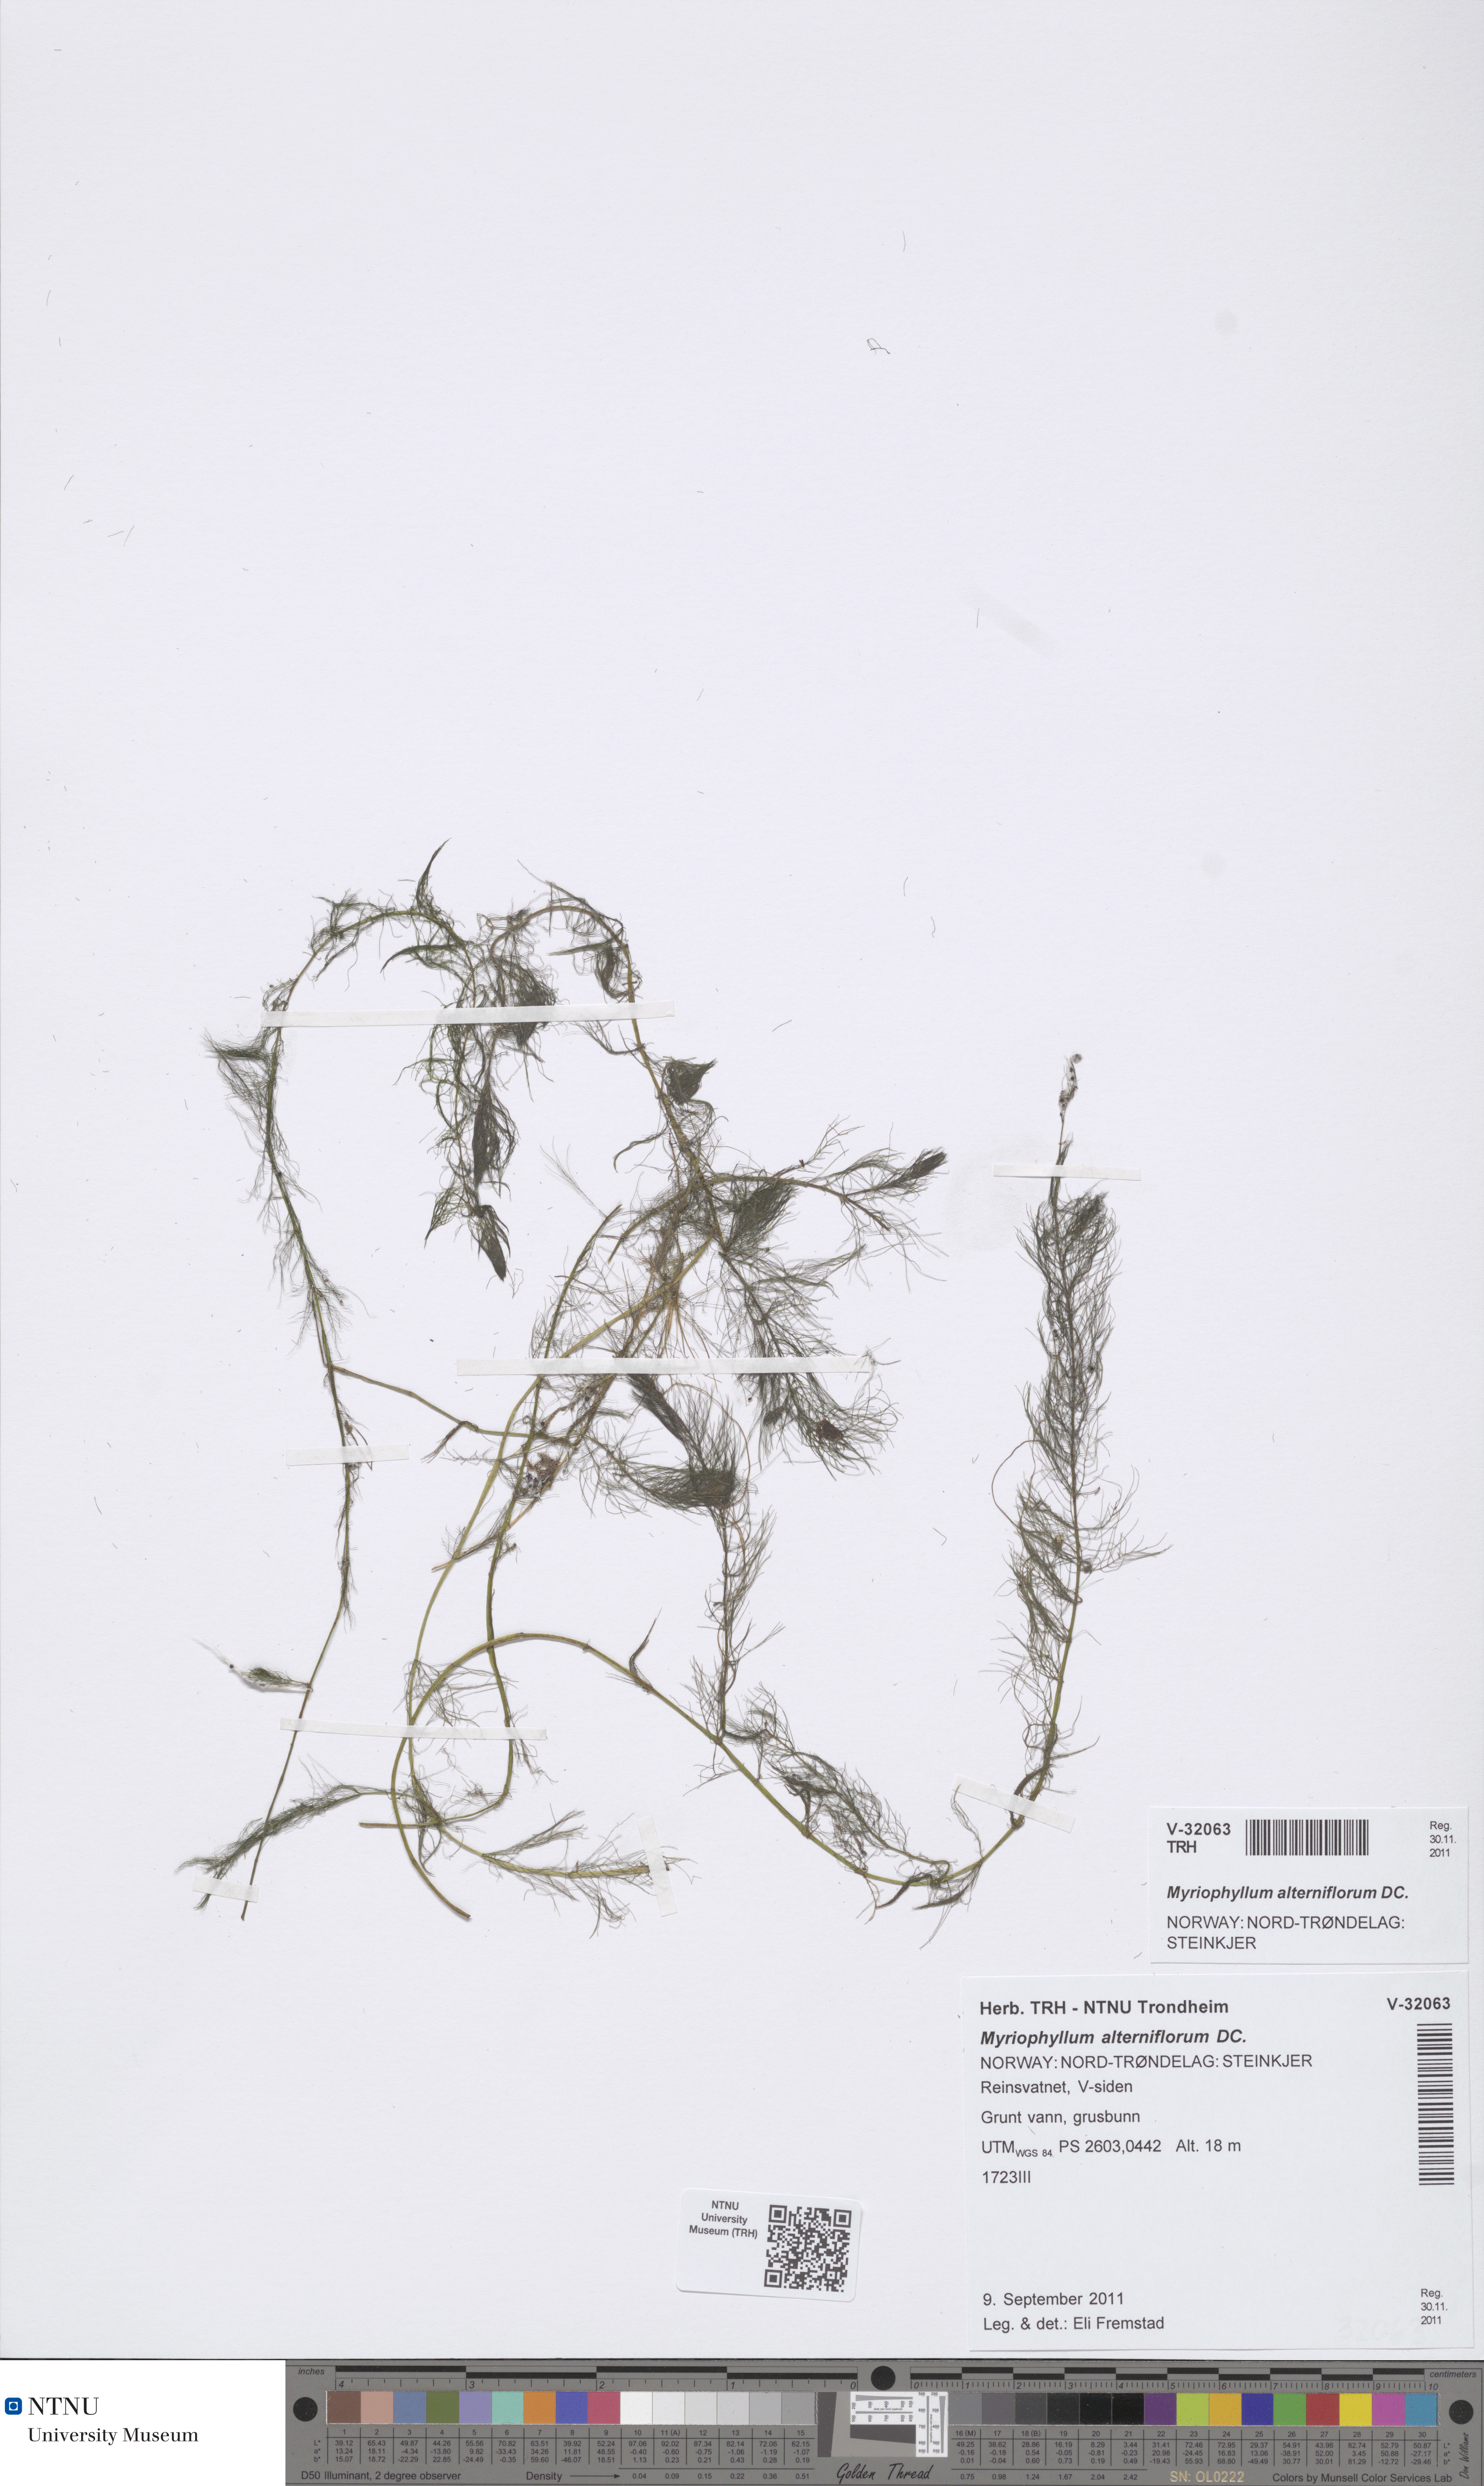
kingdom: Plantae
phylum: Tracheophyta
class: Magnoliopsida
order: Saxifragales
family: Haloragaceae
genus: Myriophyllum
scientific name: Myriophyllum alterniflorum
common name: Alternate water-milfoil
